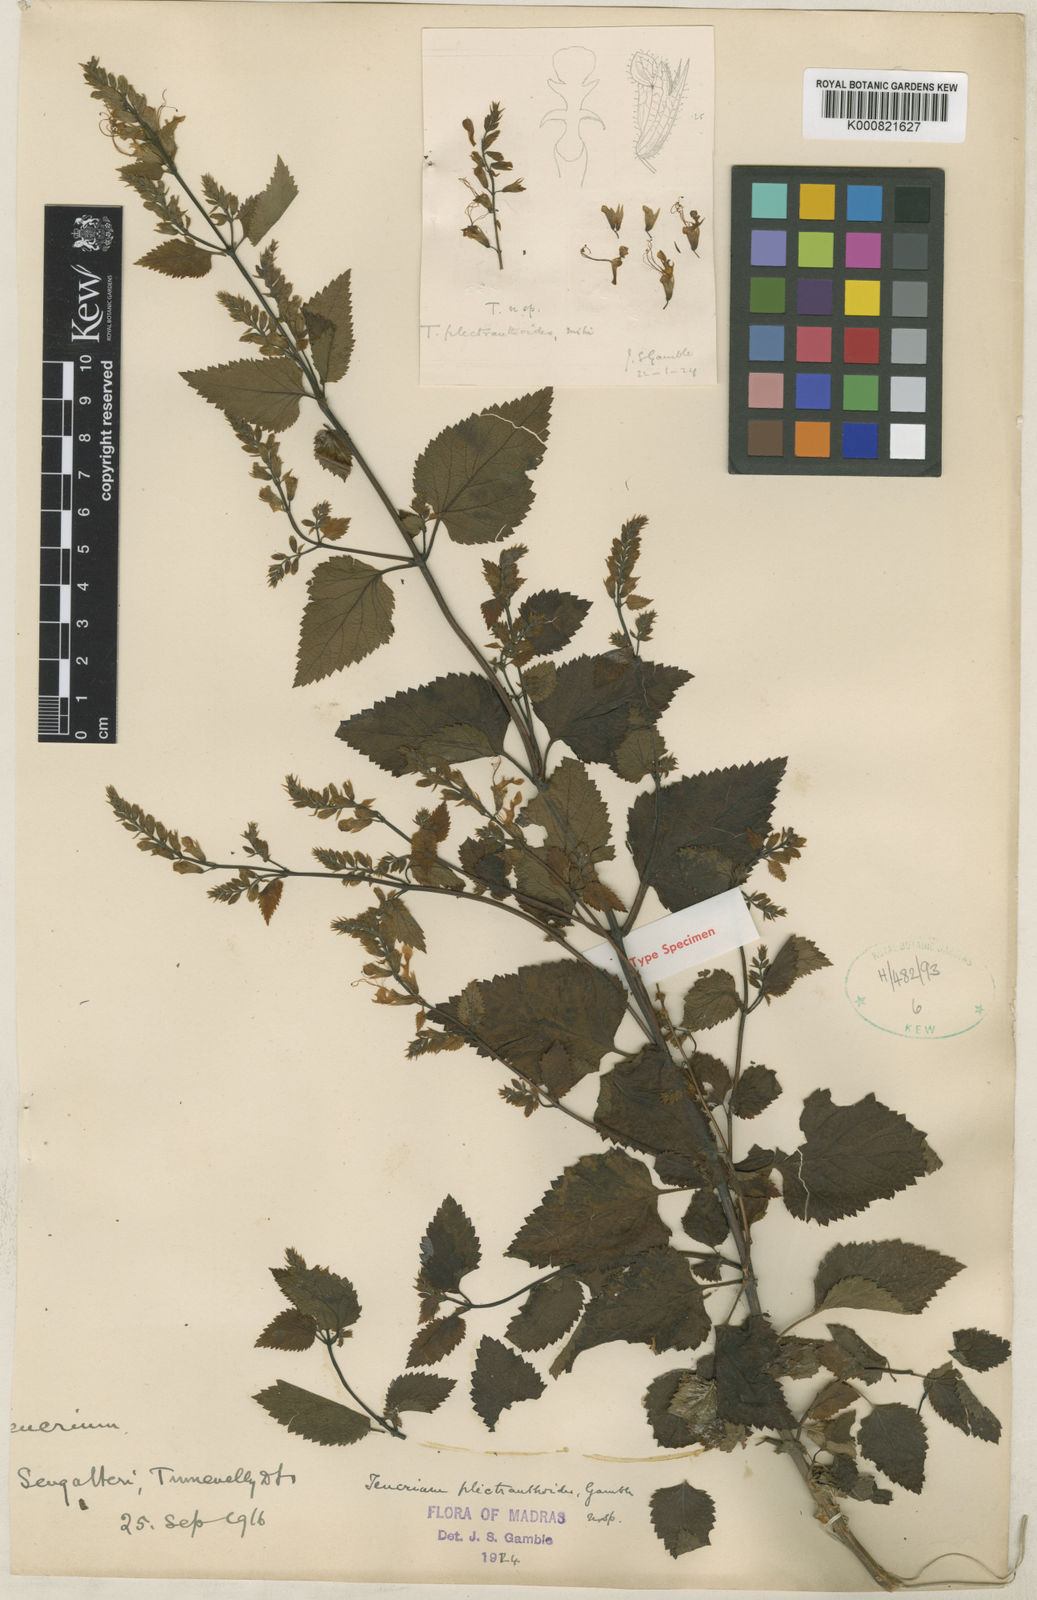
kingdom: Plantae
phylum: Tracheophyta
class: Magnoliopsida
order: Lamiales
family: Lamiaceae
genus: Teucrium
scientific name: Teucrium plectranthoides
